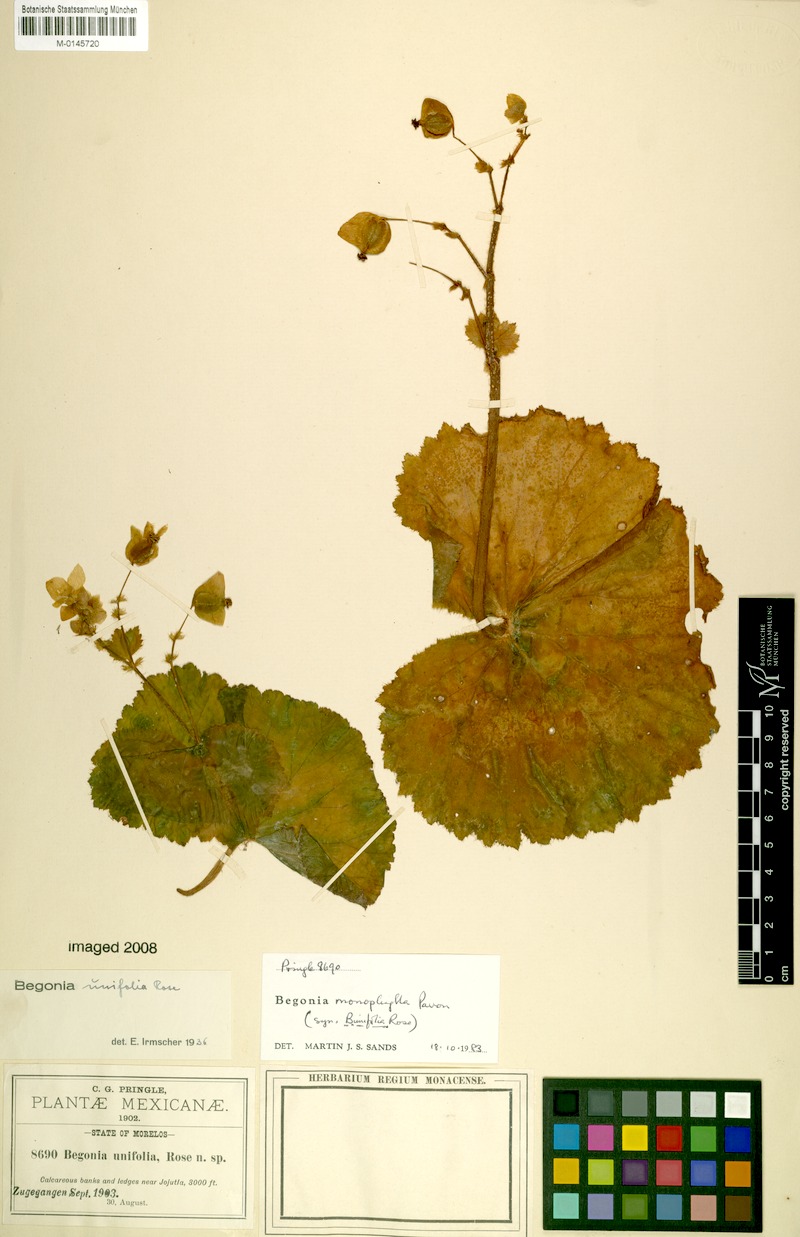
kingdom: Plantae
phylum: Tracheophyta
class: Magnoliopsida
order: Cucurbitales
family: Begoniaceae
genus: Begonia
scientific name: Begonia monophylla
